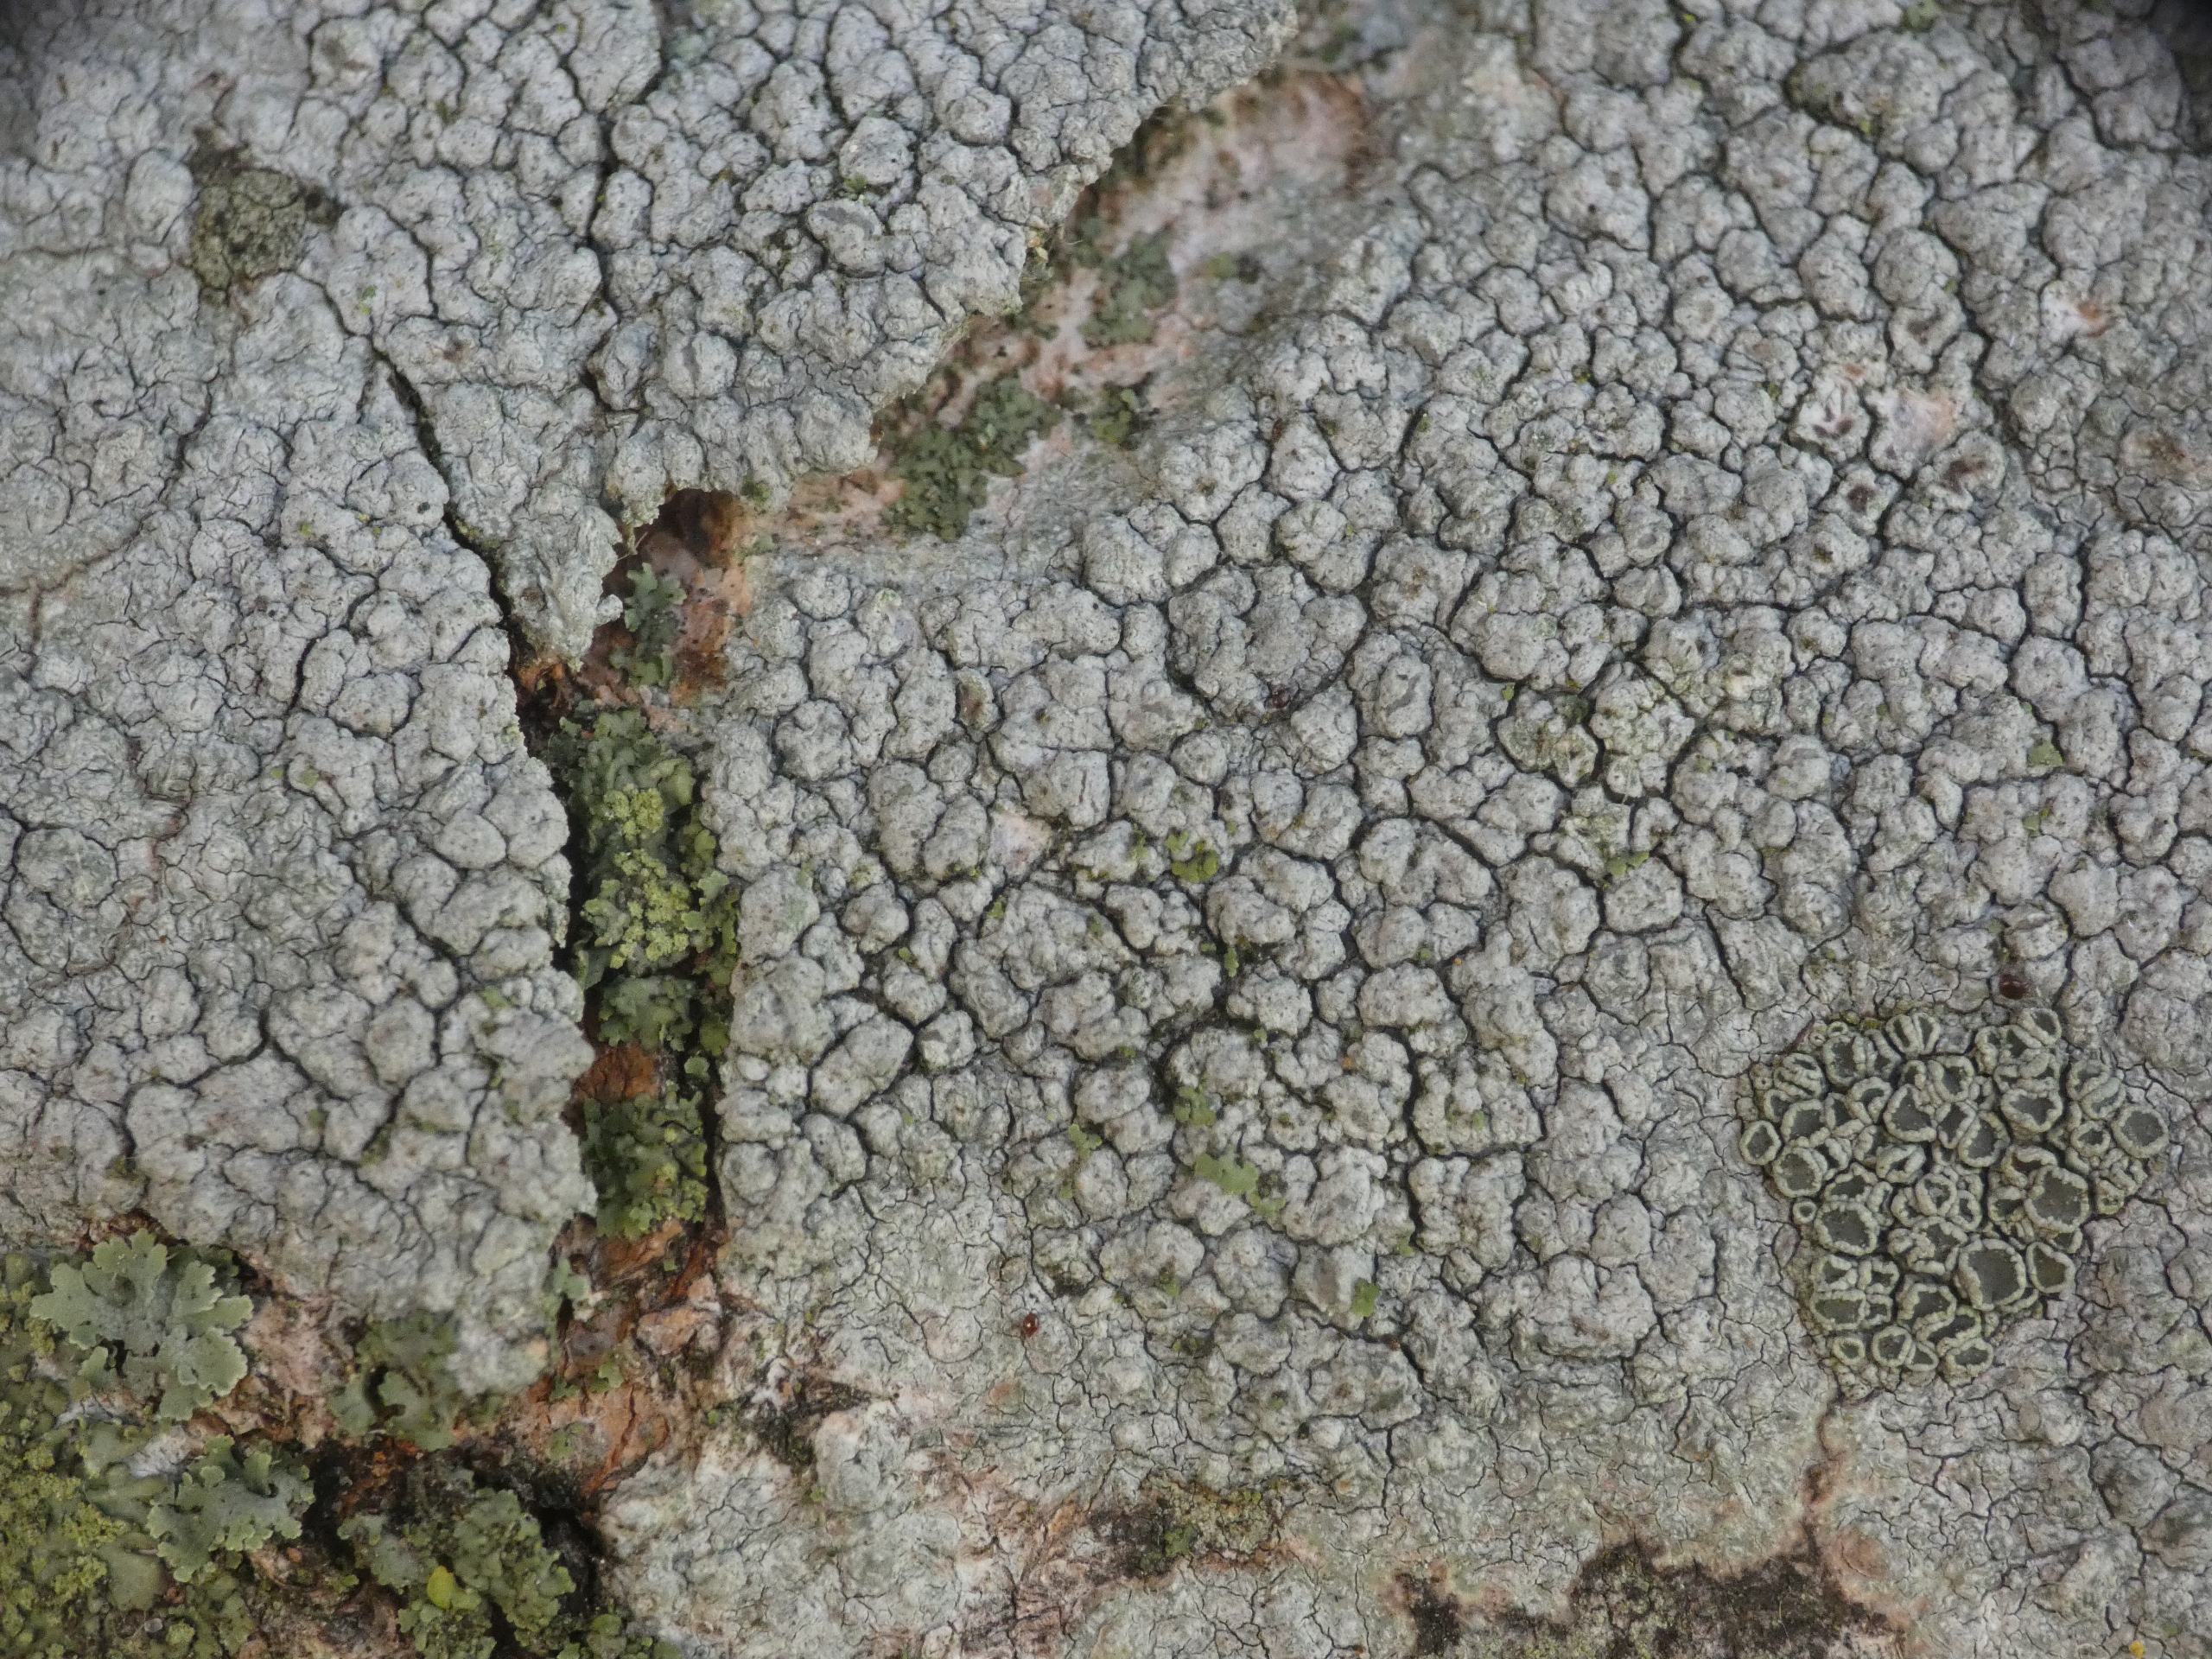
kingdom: Fungi
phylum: Ascomycota
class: Lecanoromycetes
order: Pertusariales
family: Pertusariaceae
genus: Pertusaria
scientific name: Pertusaria pertusa
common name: Almindelig prikvortelav
